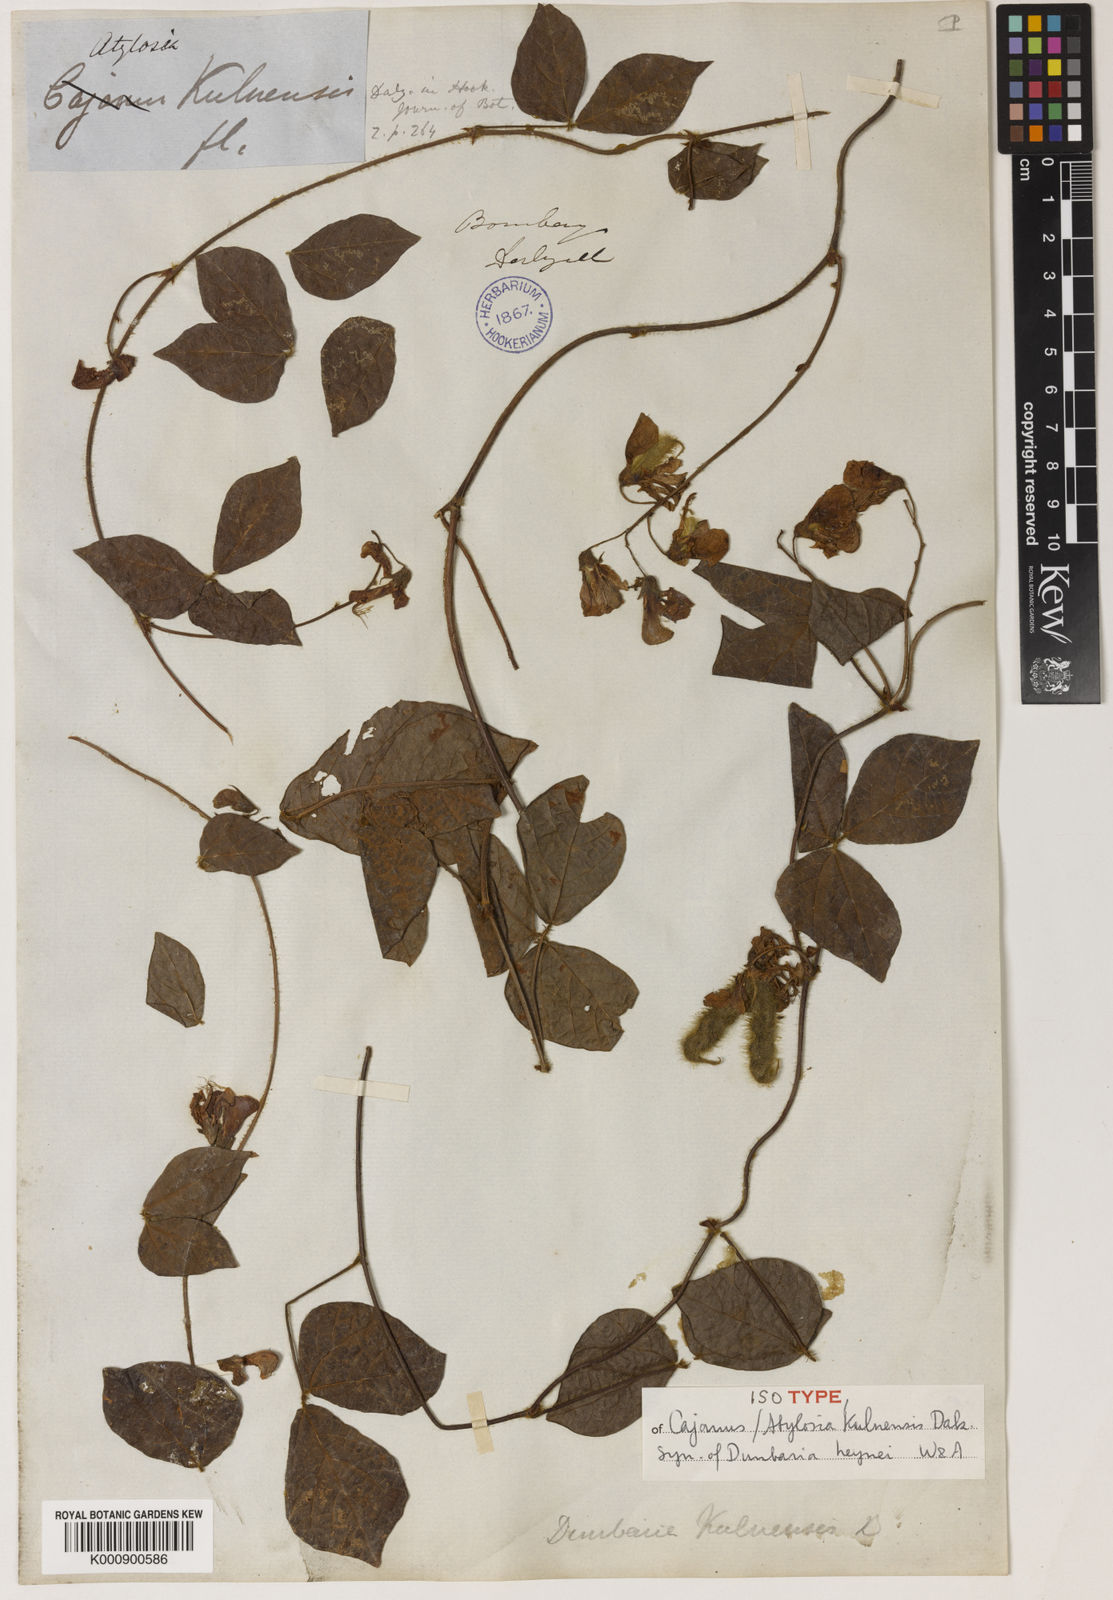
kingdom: Plantae
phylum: Tracheophyta
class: Magnoliopsida
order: Fabales
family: Fabaceae
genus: Cajanus
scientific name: Cajanus heynei
